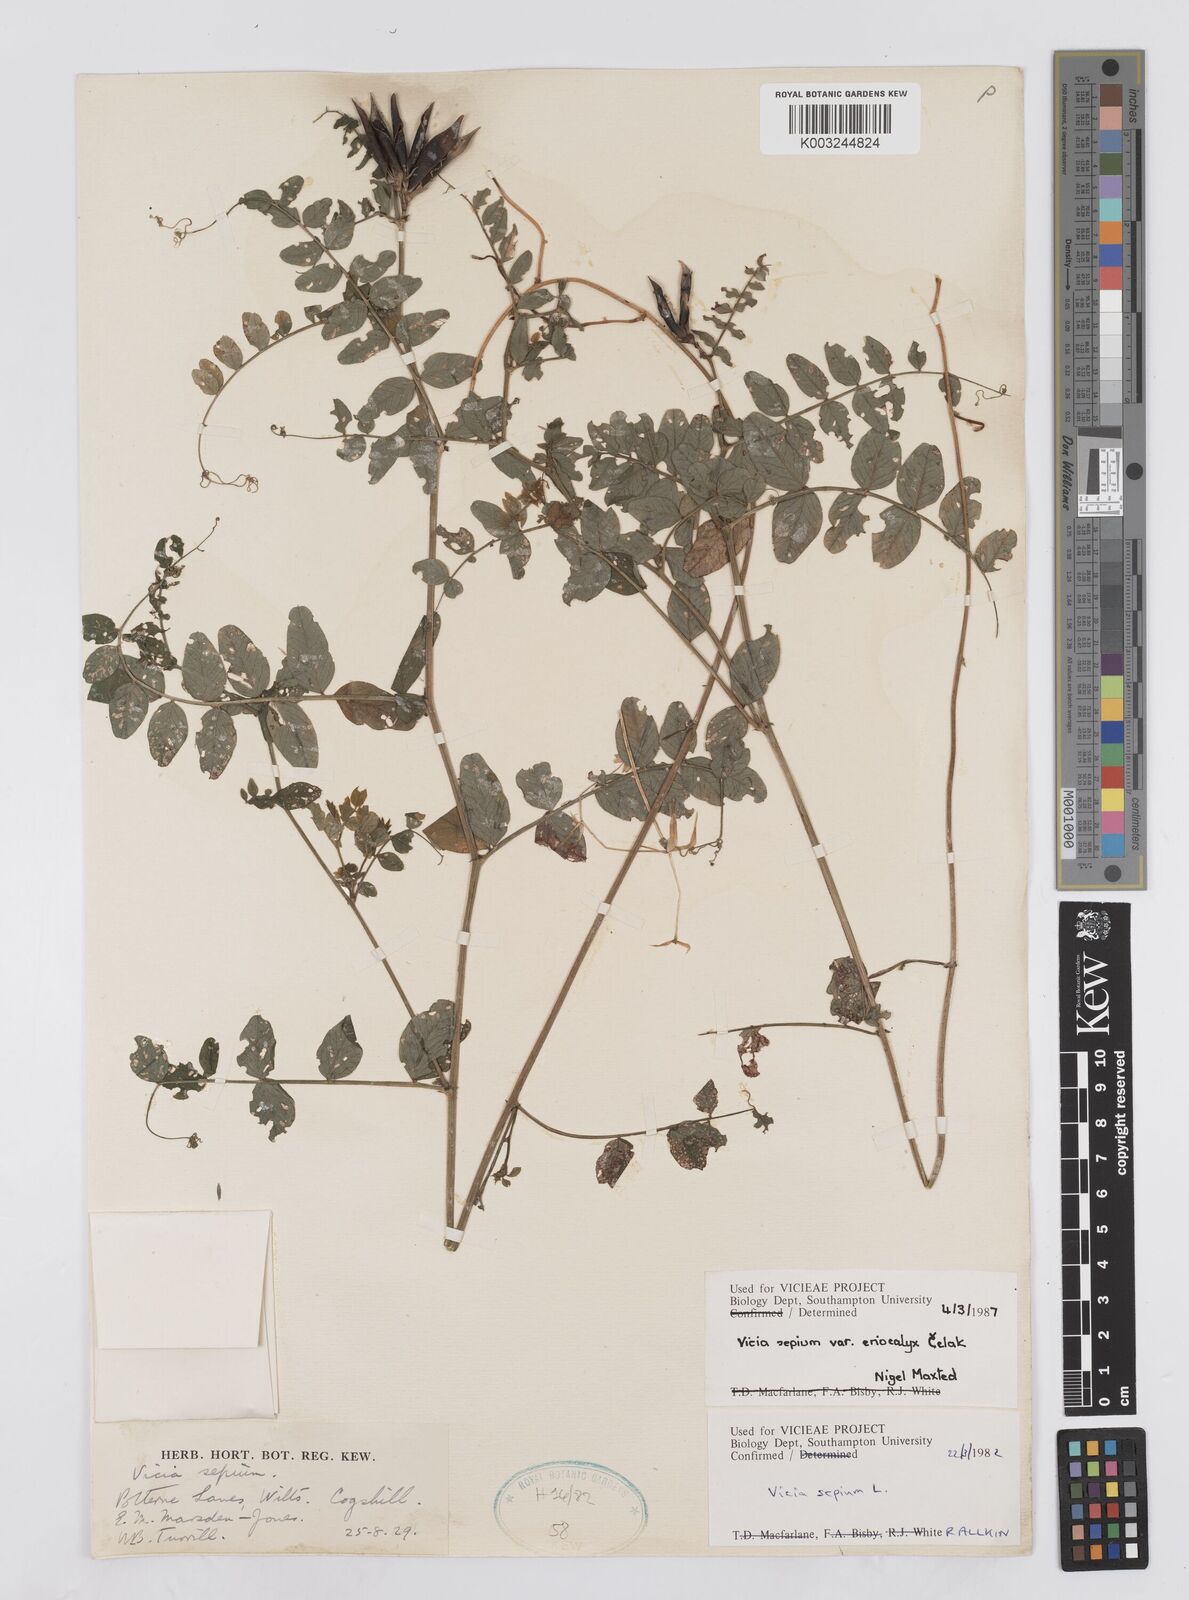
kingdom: Plantae
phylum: Tracheophyta
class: Magnoliopsida
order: Fabales
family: Fabaceae
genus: Vicia
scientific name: Vicia sepium
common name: Bush vetch
